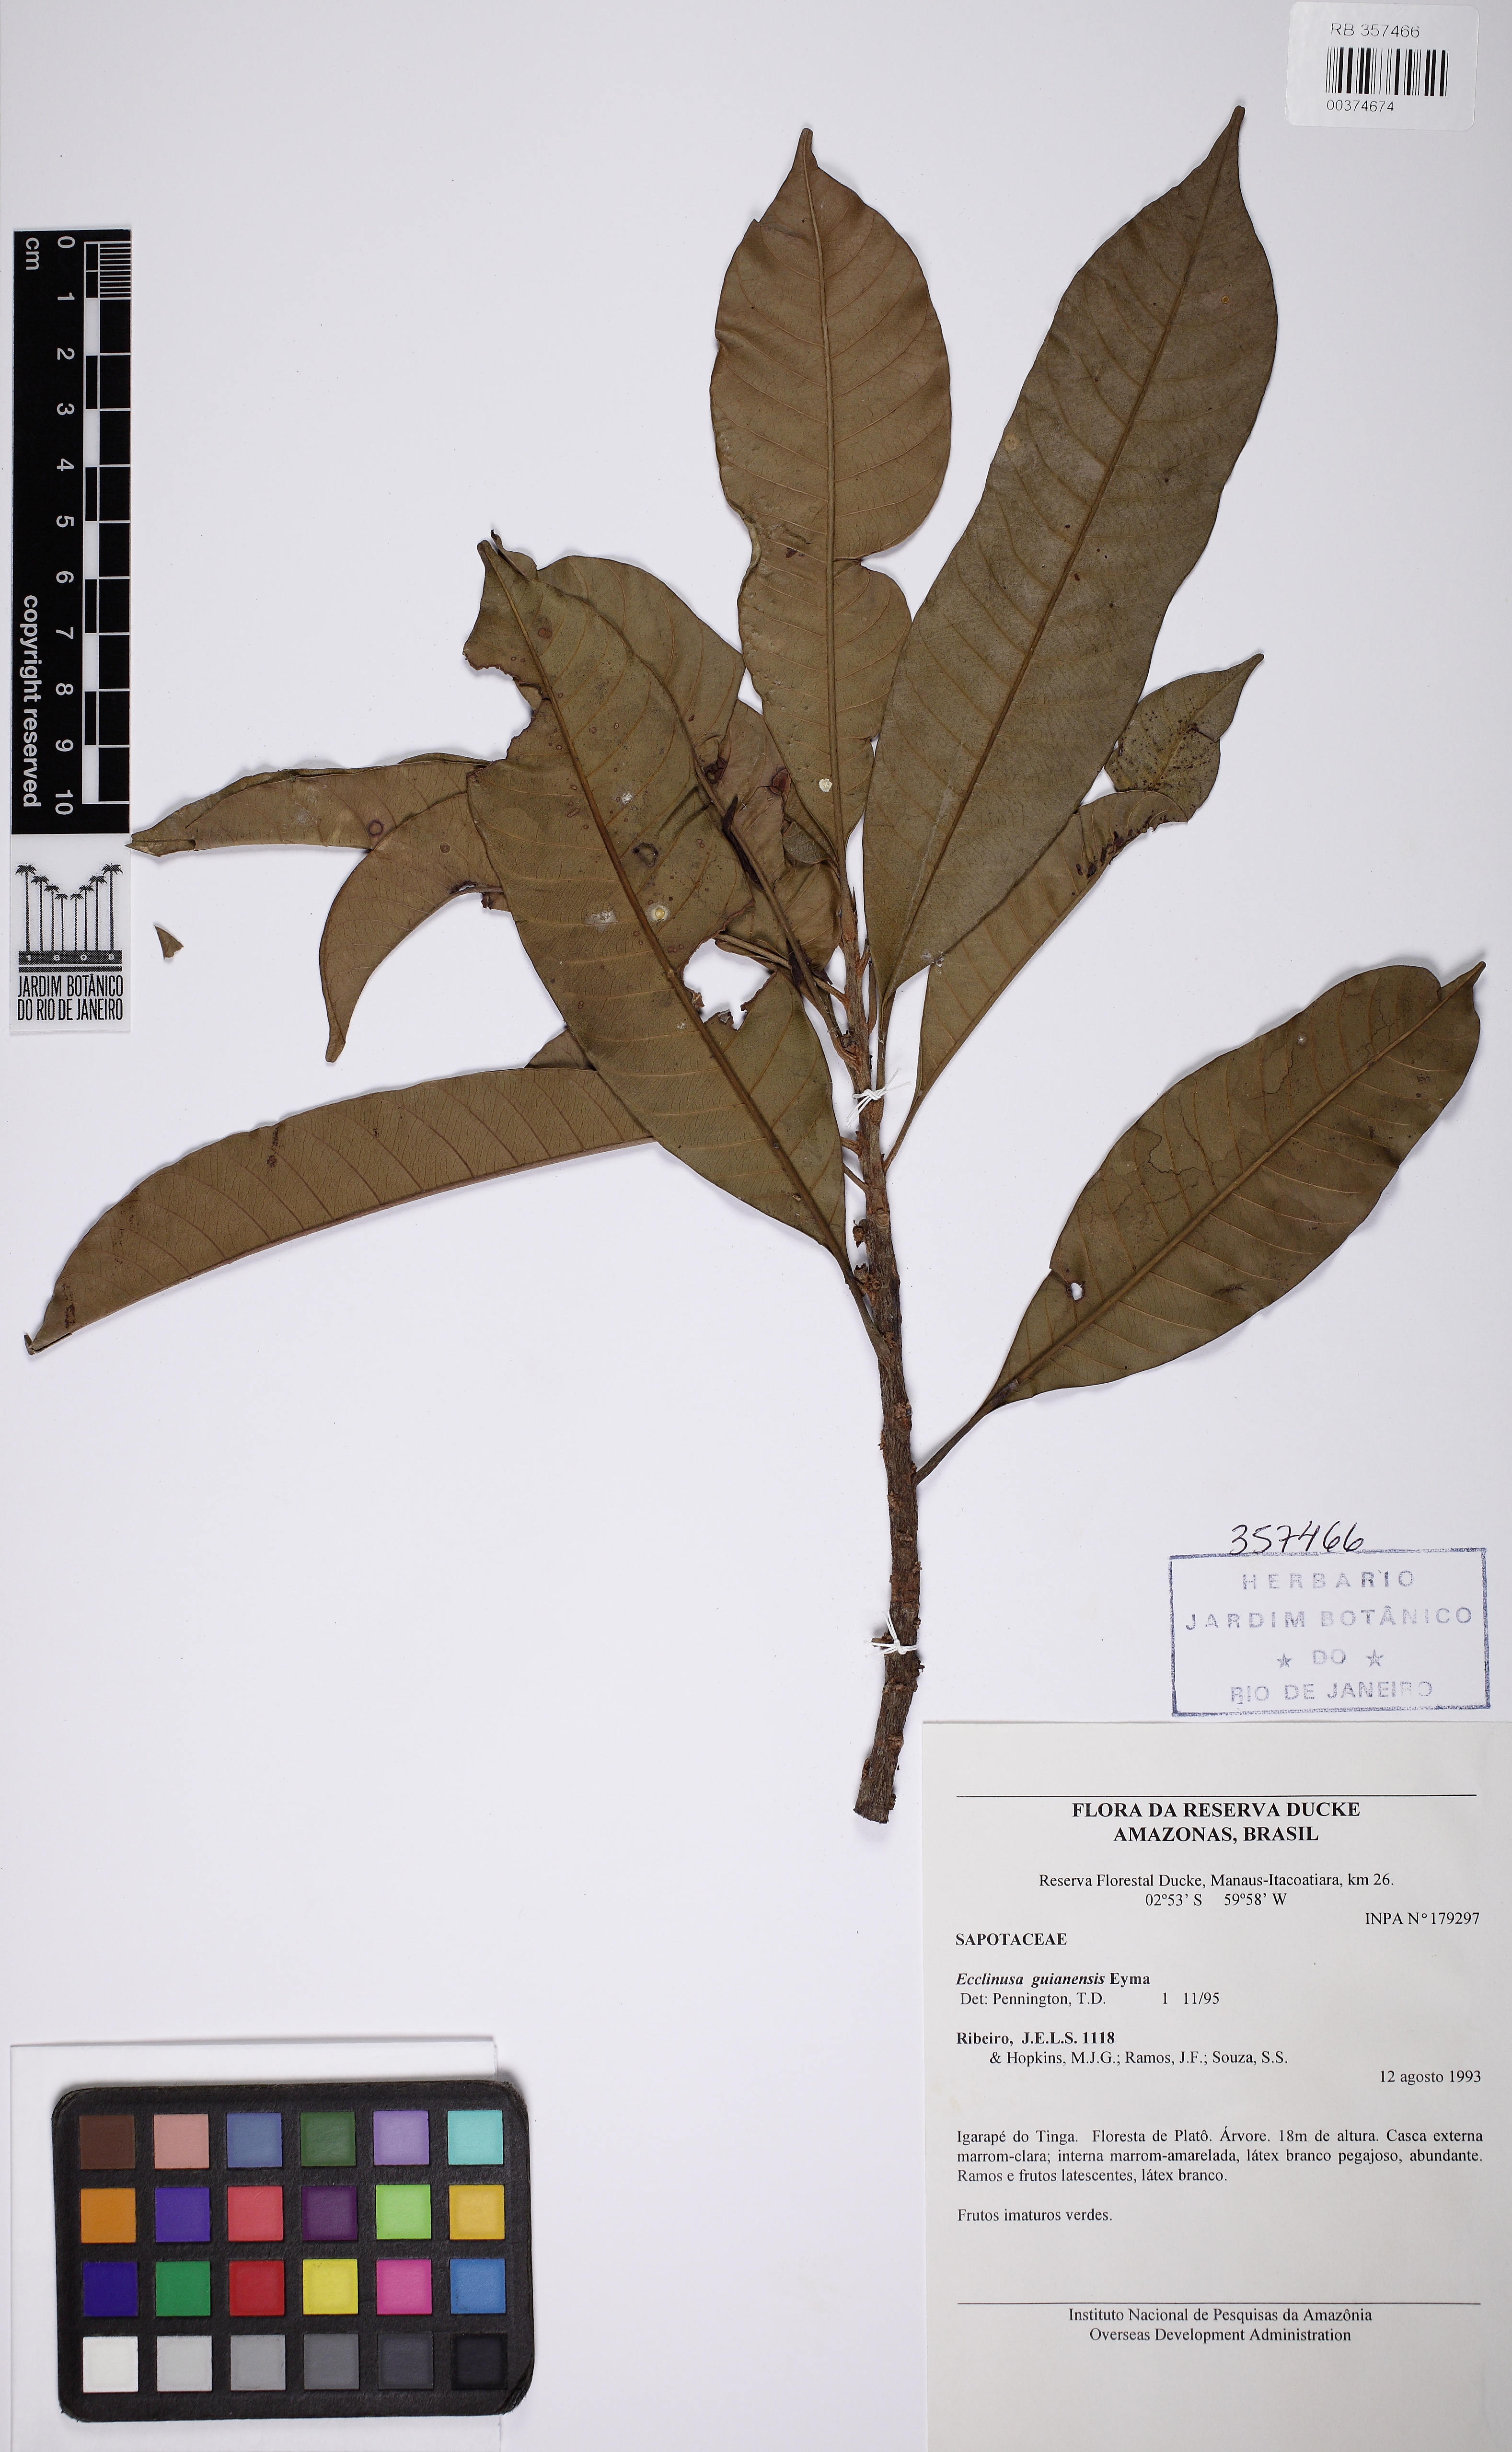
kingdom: Plantae
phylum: Tracheophyta
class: Magnoliopsida
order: Ericales
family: Sapotaceae
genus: Ecclinusa
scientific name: Ecclinusa guianensis
